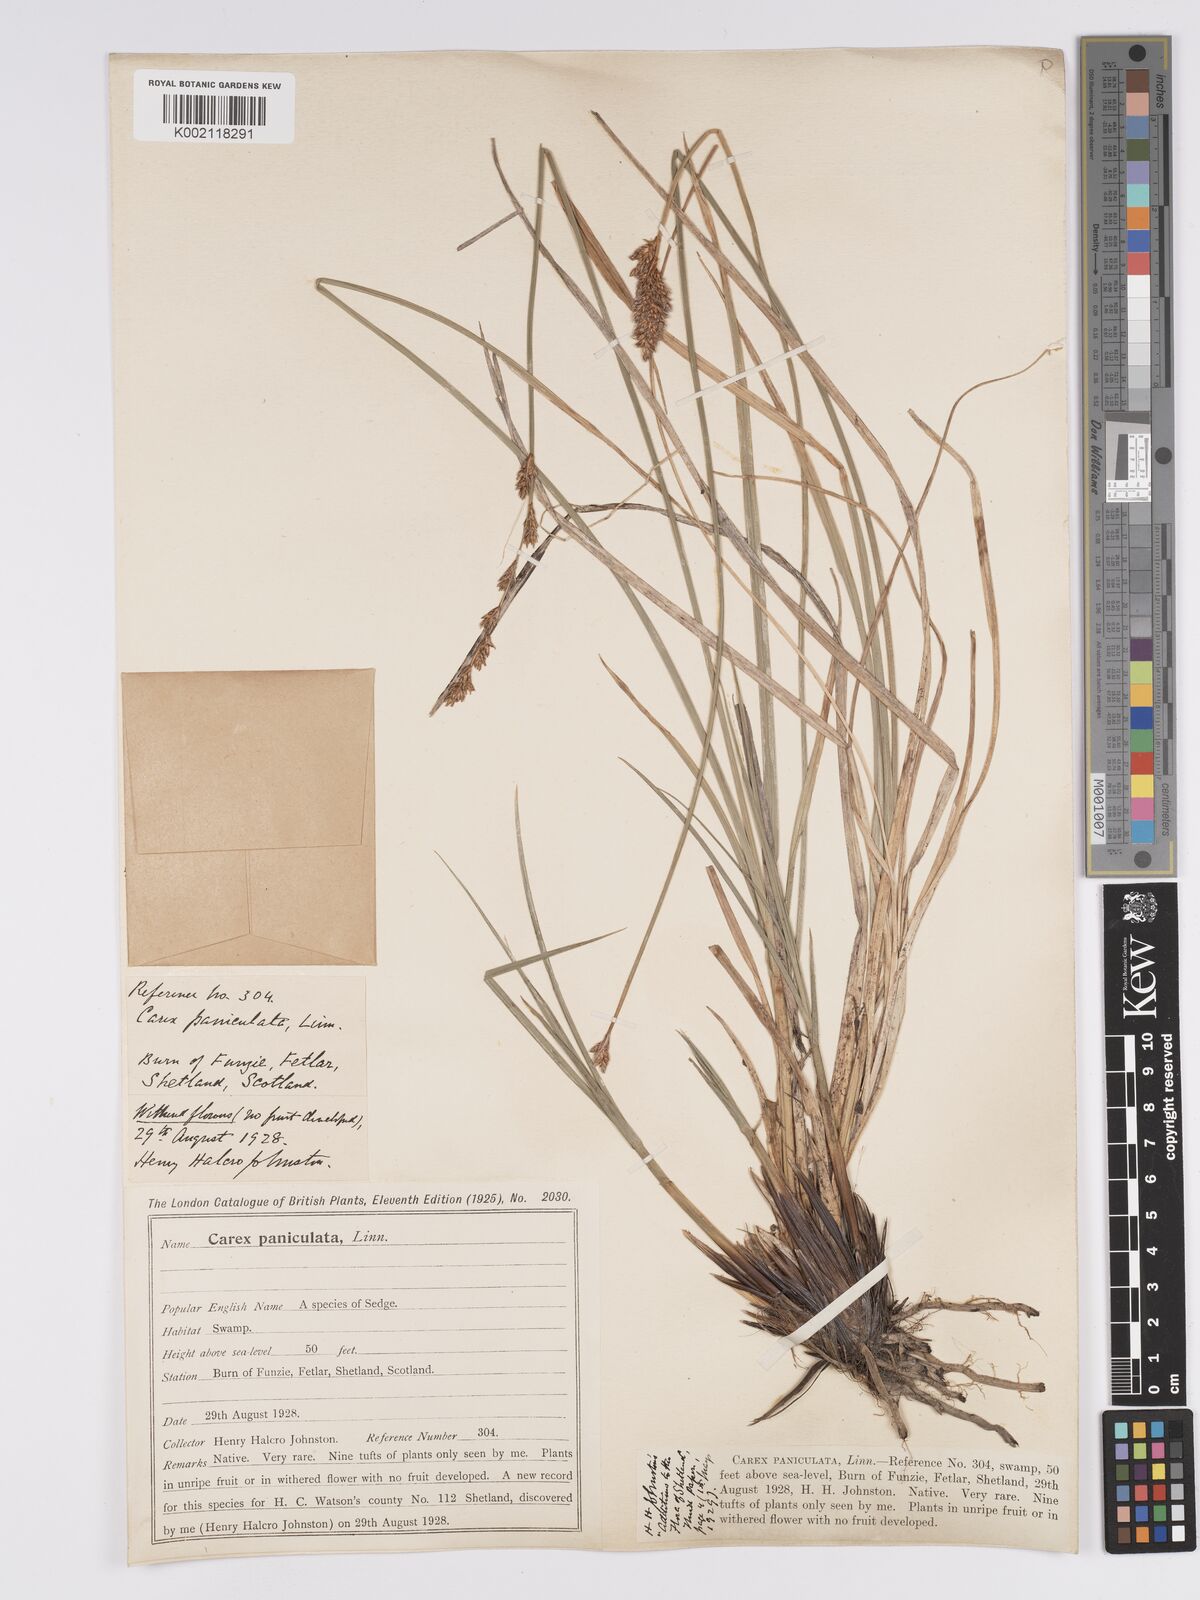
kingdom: Plantae
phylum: Tracheophyta
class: Liliopsida
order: Poales
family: Cyperaceae
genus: Carex
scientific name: Carex paniculata
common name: Greater tussock-sedge
